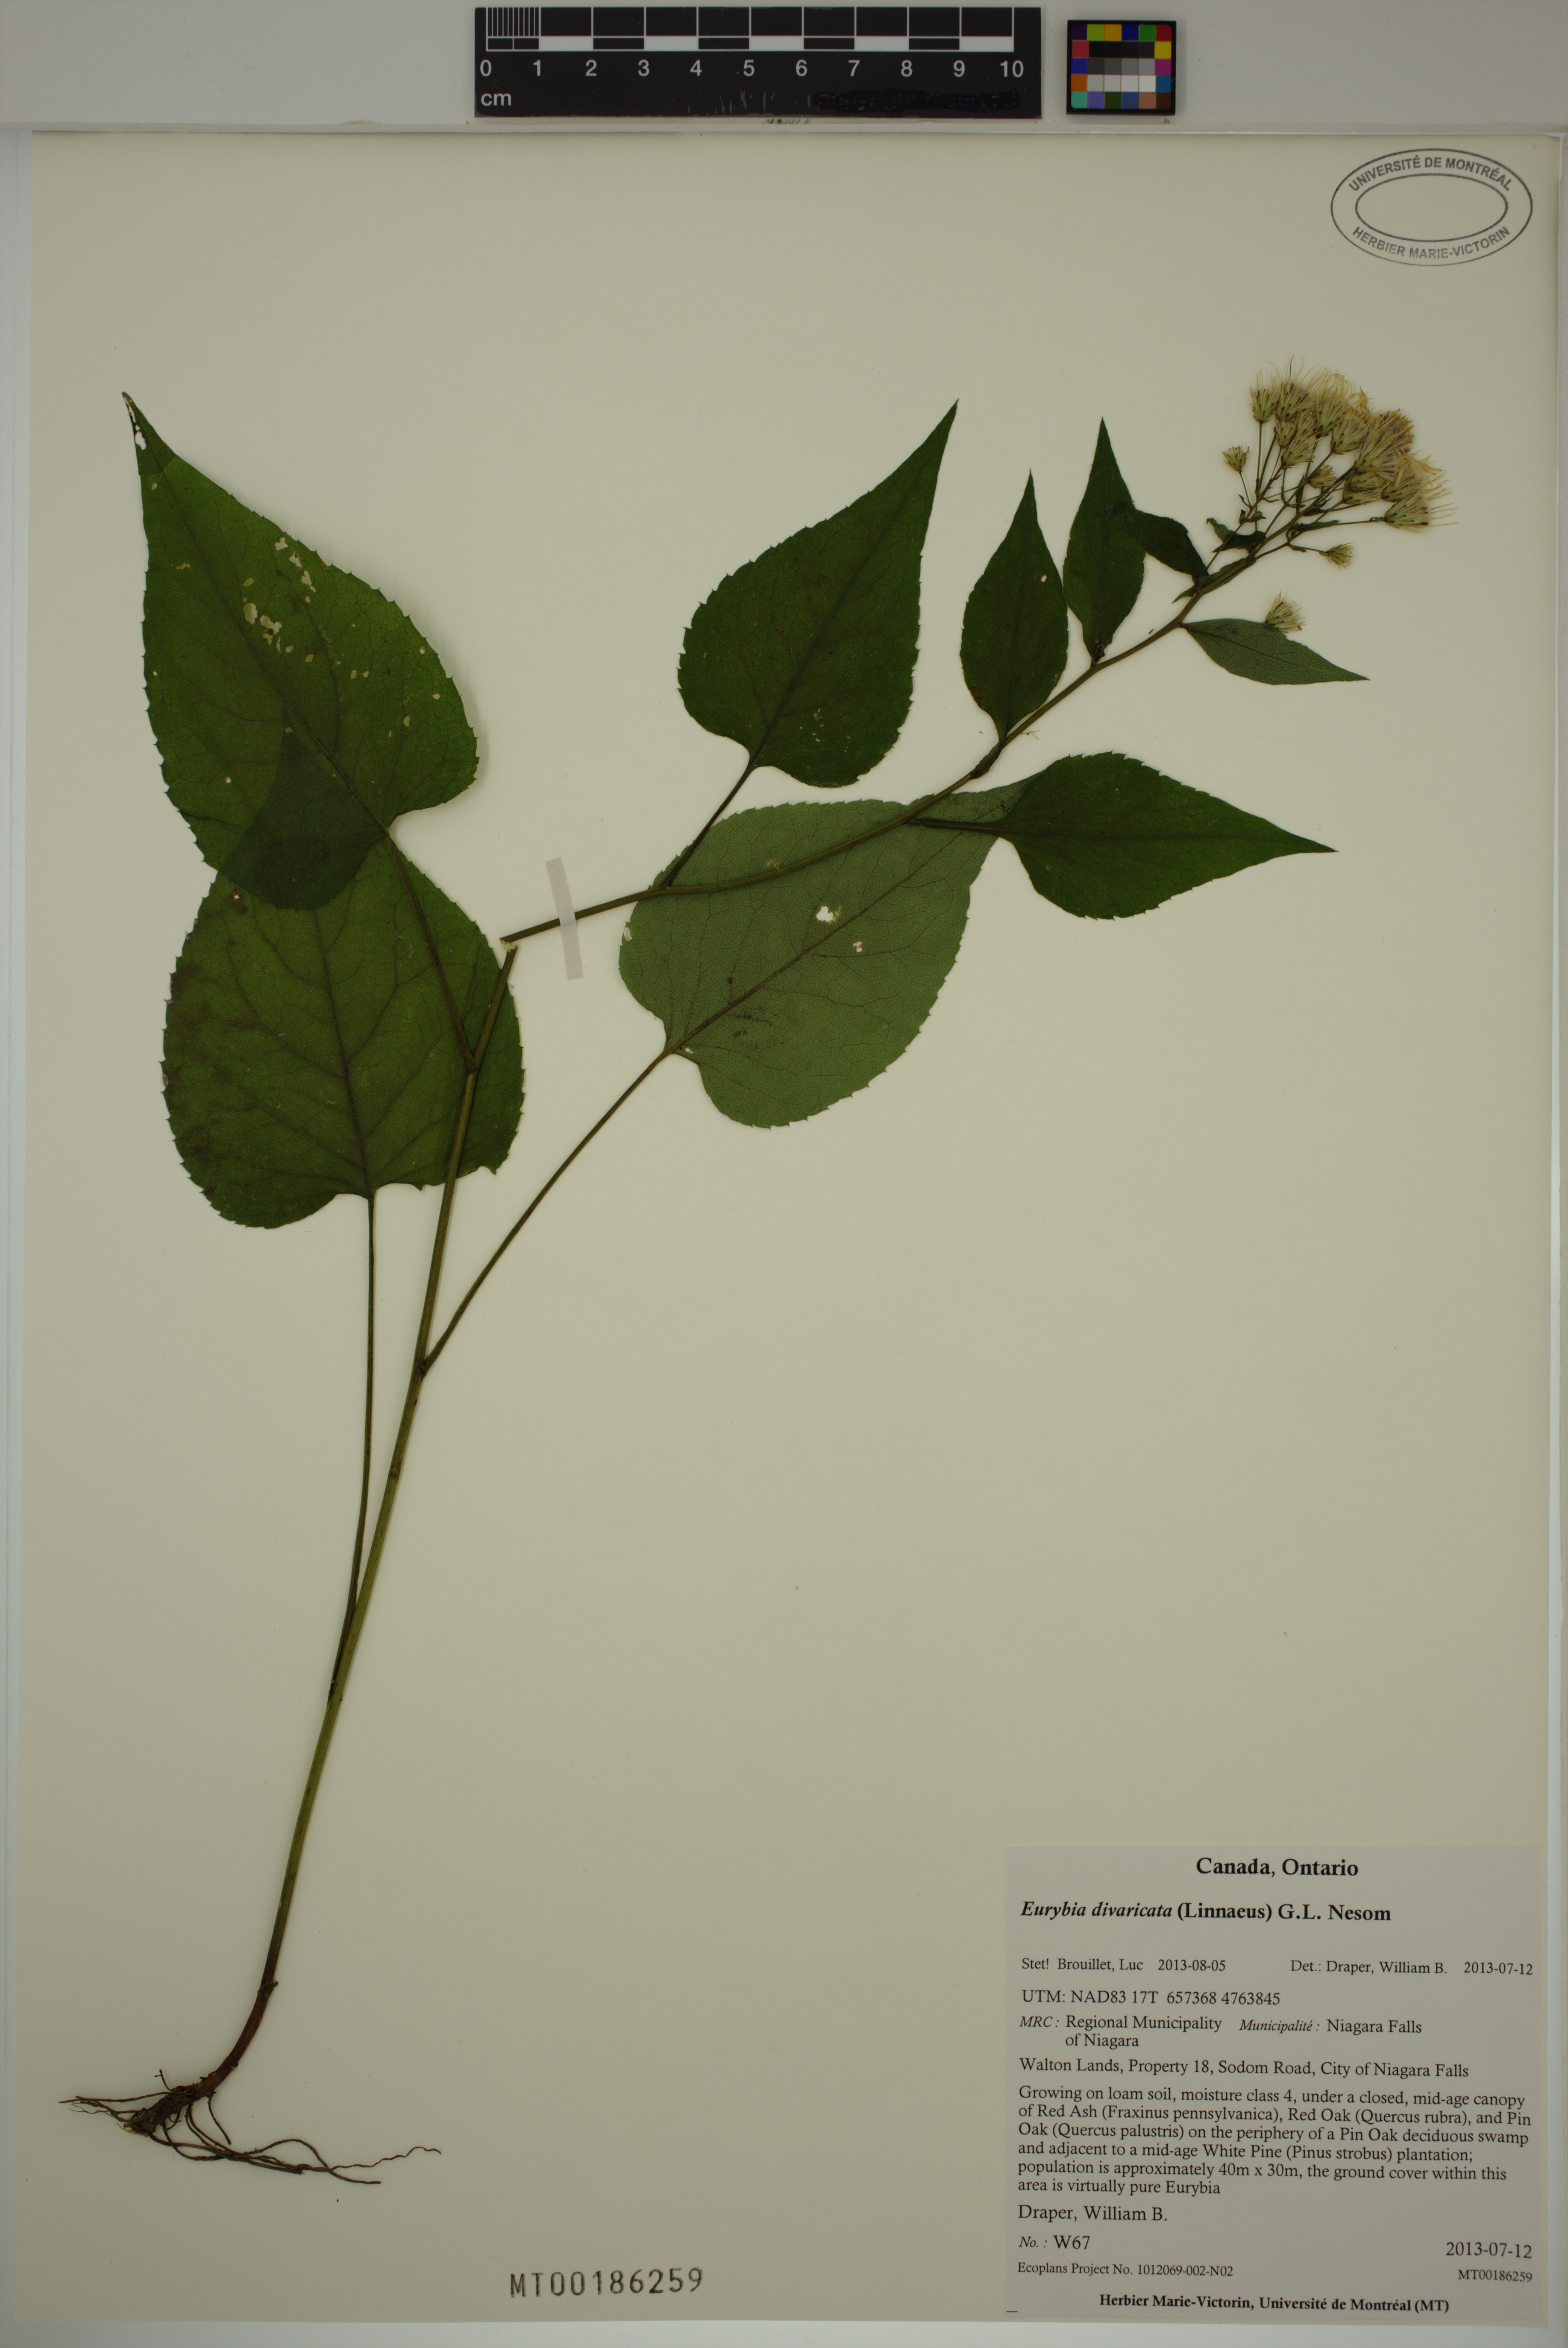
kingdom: Plantae
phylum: Tracheophyta
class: Magnoliopsida
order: Asterales
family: Asteraceae
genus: Eurybia
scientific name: Eurybia divaricata
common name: White wood aster
